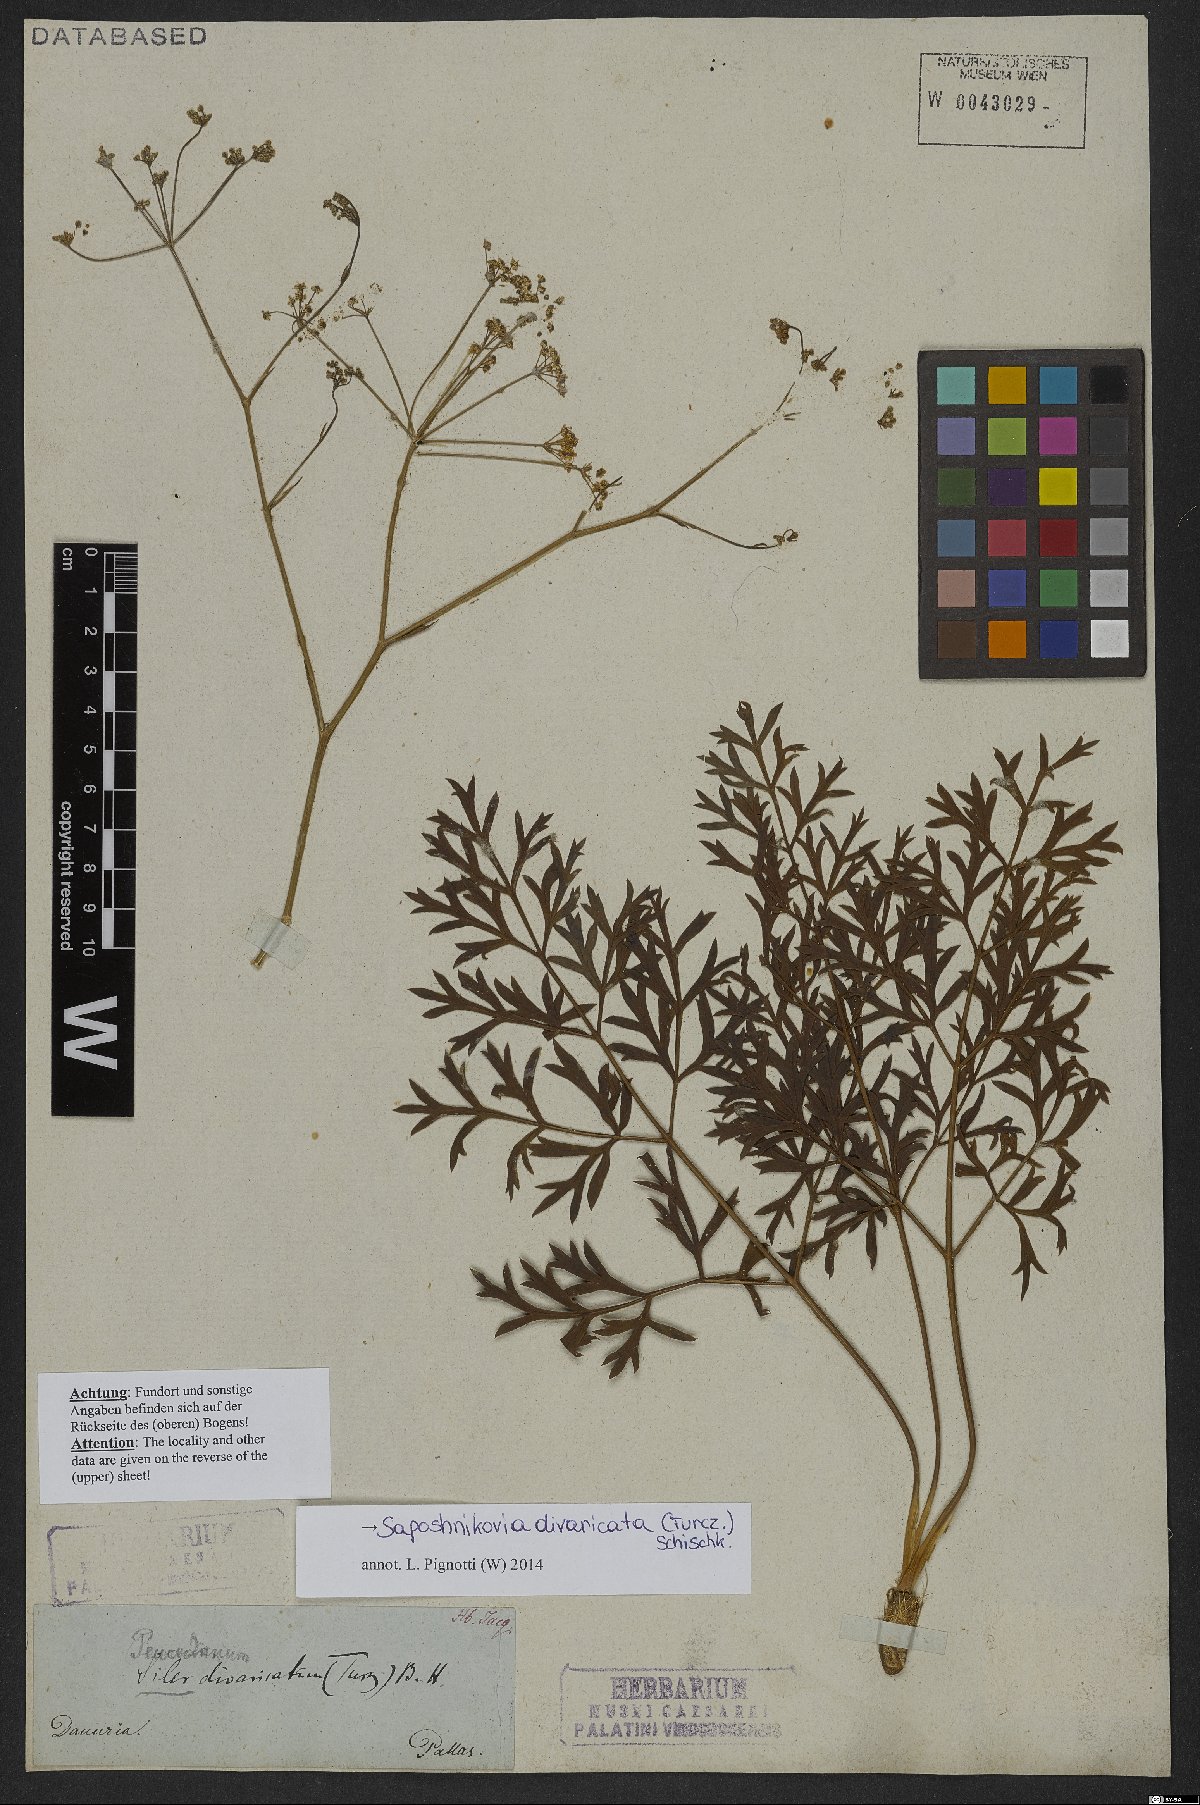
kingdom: Plantae
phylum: Tracheophyta
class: Magnoliopsida
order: Apiales
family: Apiaceae
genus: Saposhnikovia
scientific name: Saposhnikovia divaricata
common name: Siler
